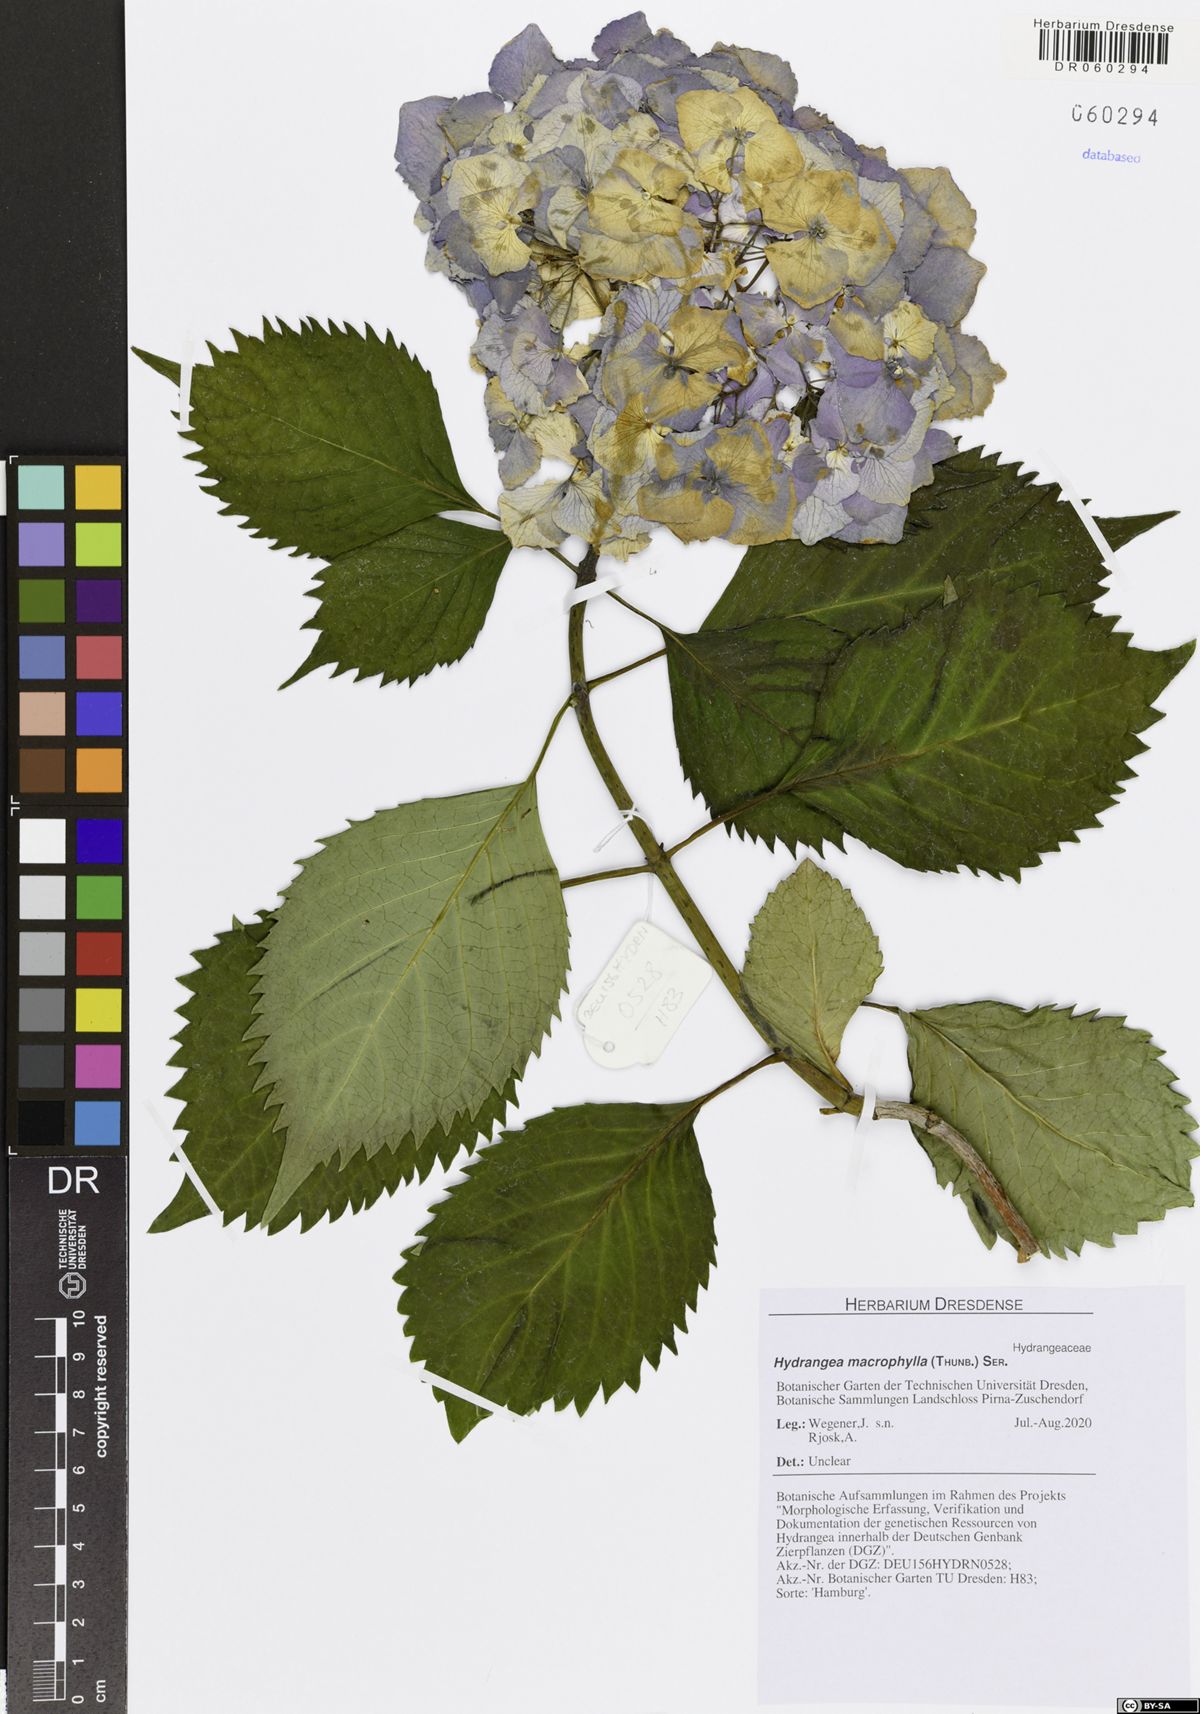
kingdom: Plantae
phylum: Tracheophyta
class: Magnoliopsida
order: Cornales
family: Hydrangeaceae
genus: Hydrangea
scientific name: Hydrangea macrophylla
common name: Hydrangea
